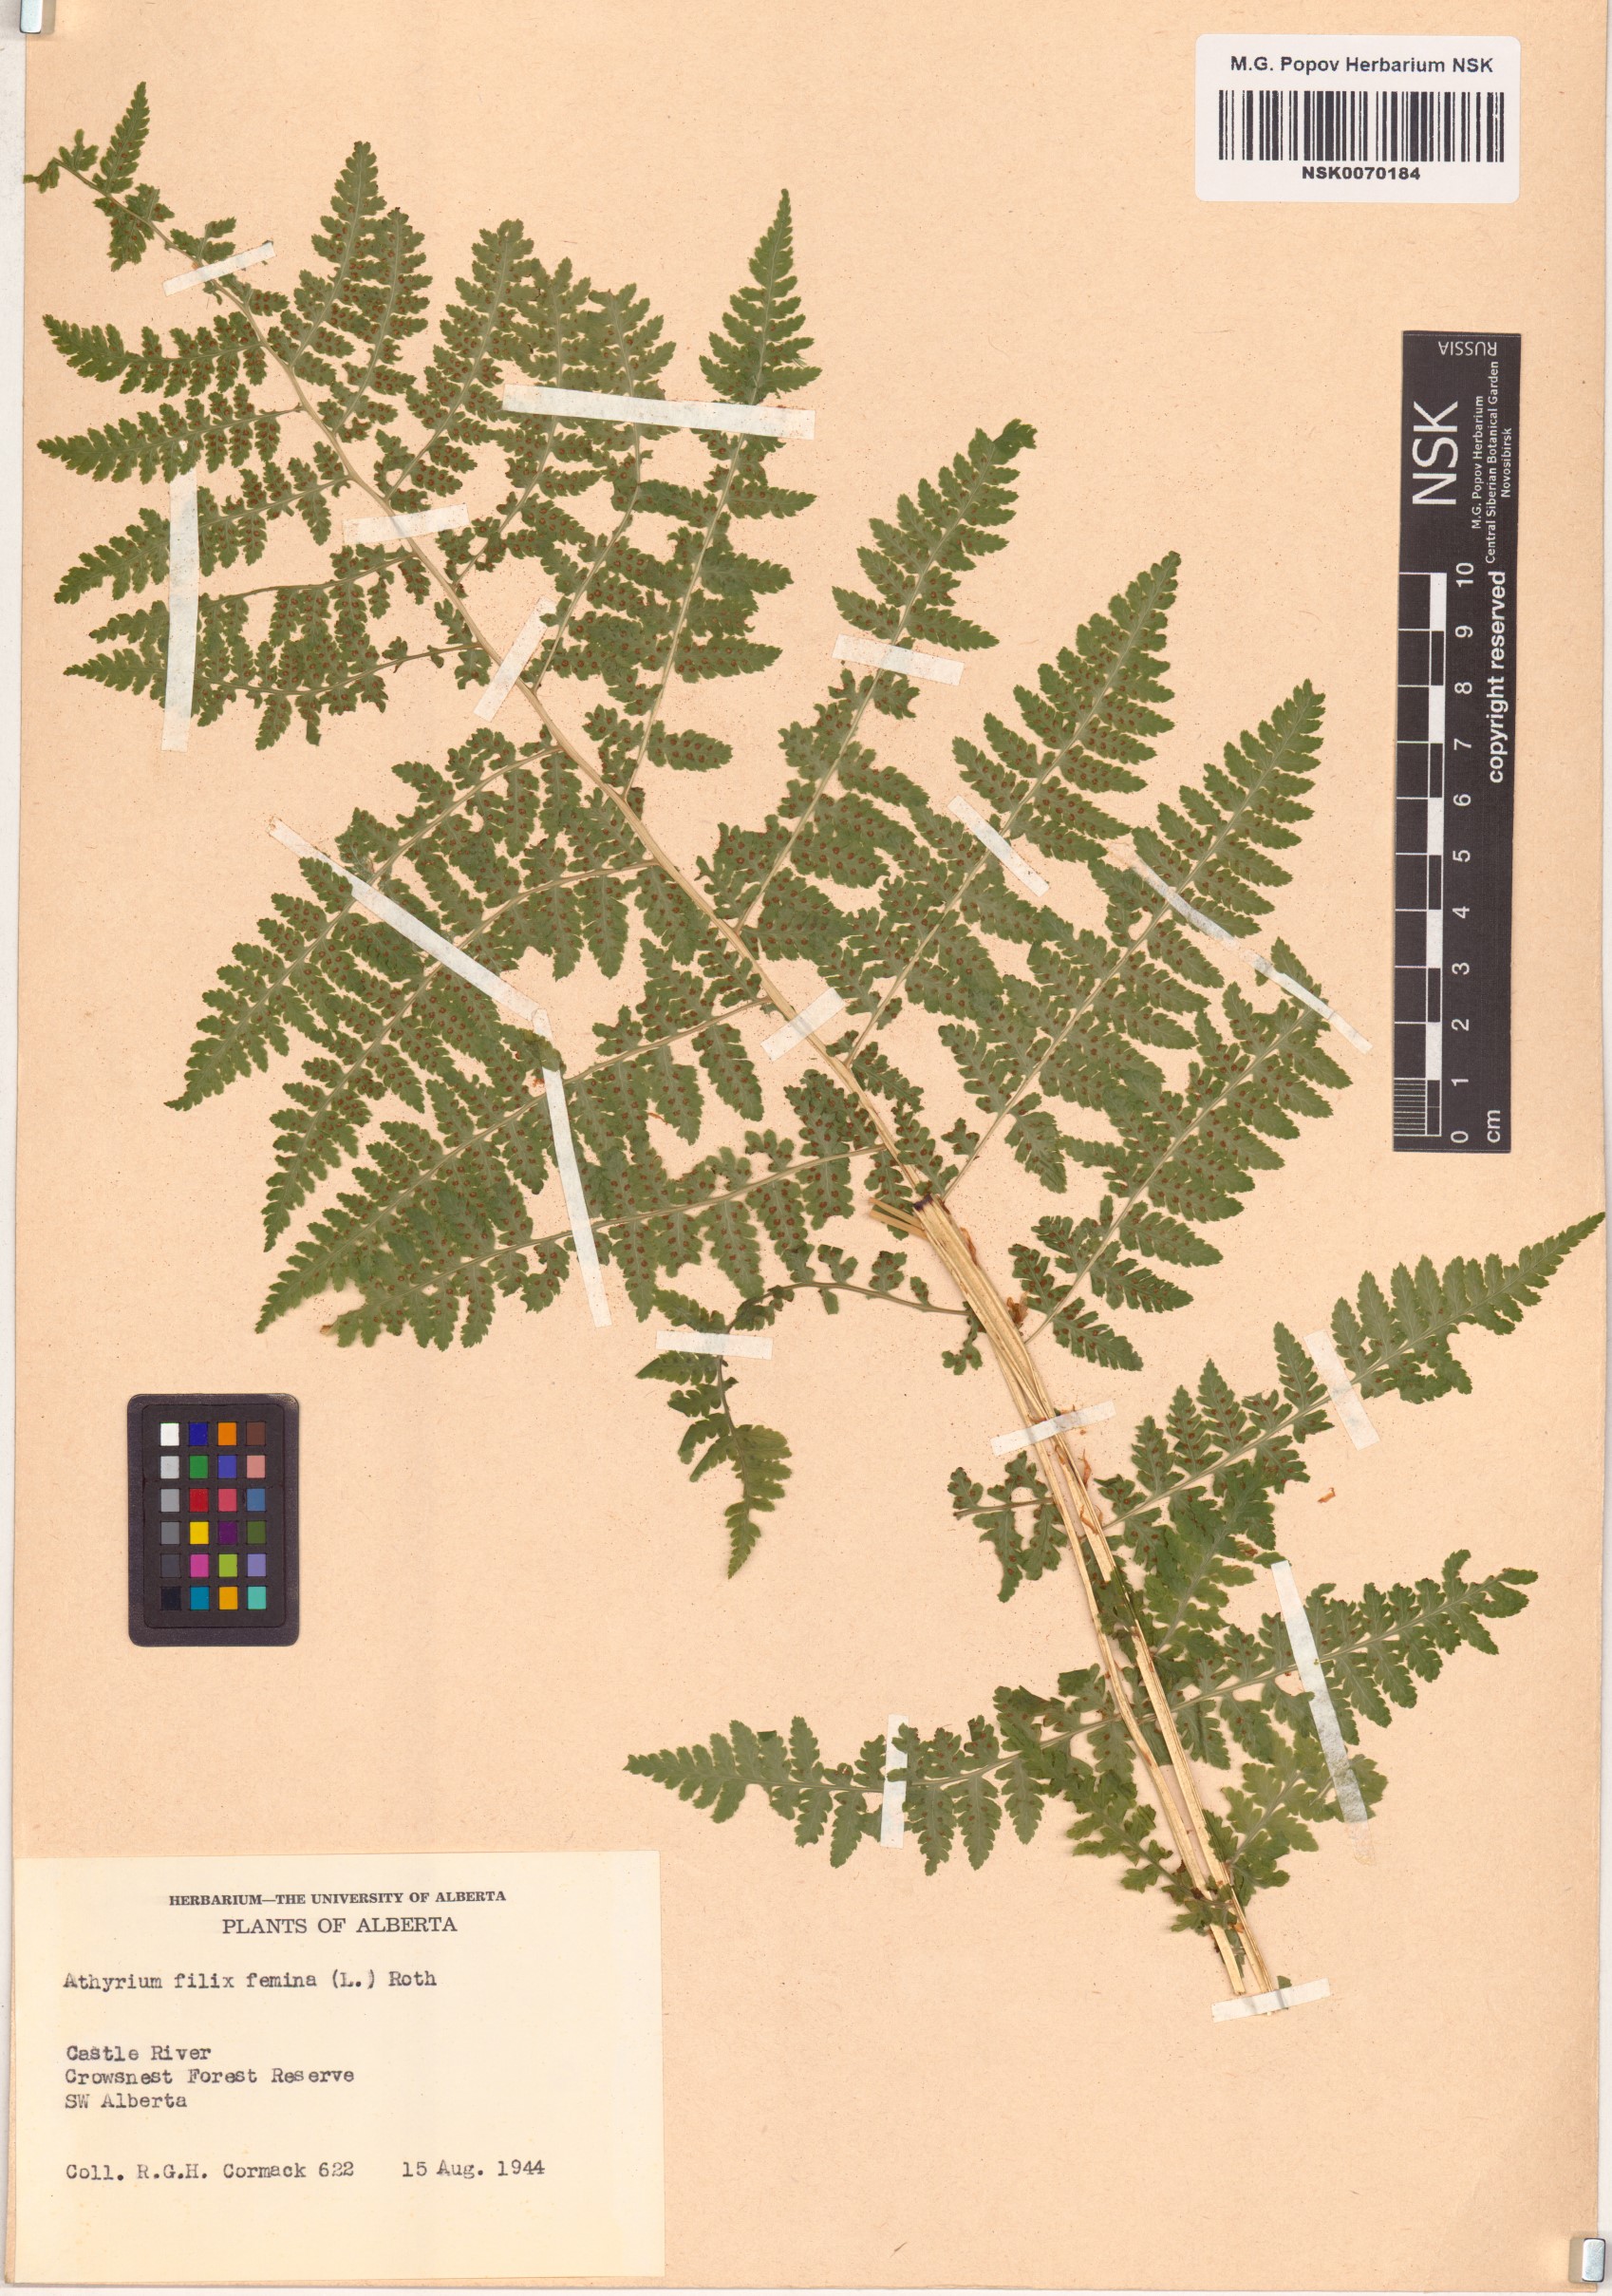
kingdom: Plantae
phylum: Tracheophyta
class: Polypodiopsida
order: Polypodiales
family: Athyriaceae
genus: Athyrium
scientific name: Athyrium filix-femina
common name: Lady fern
